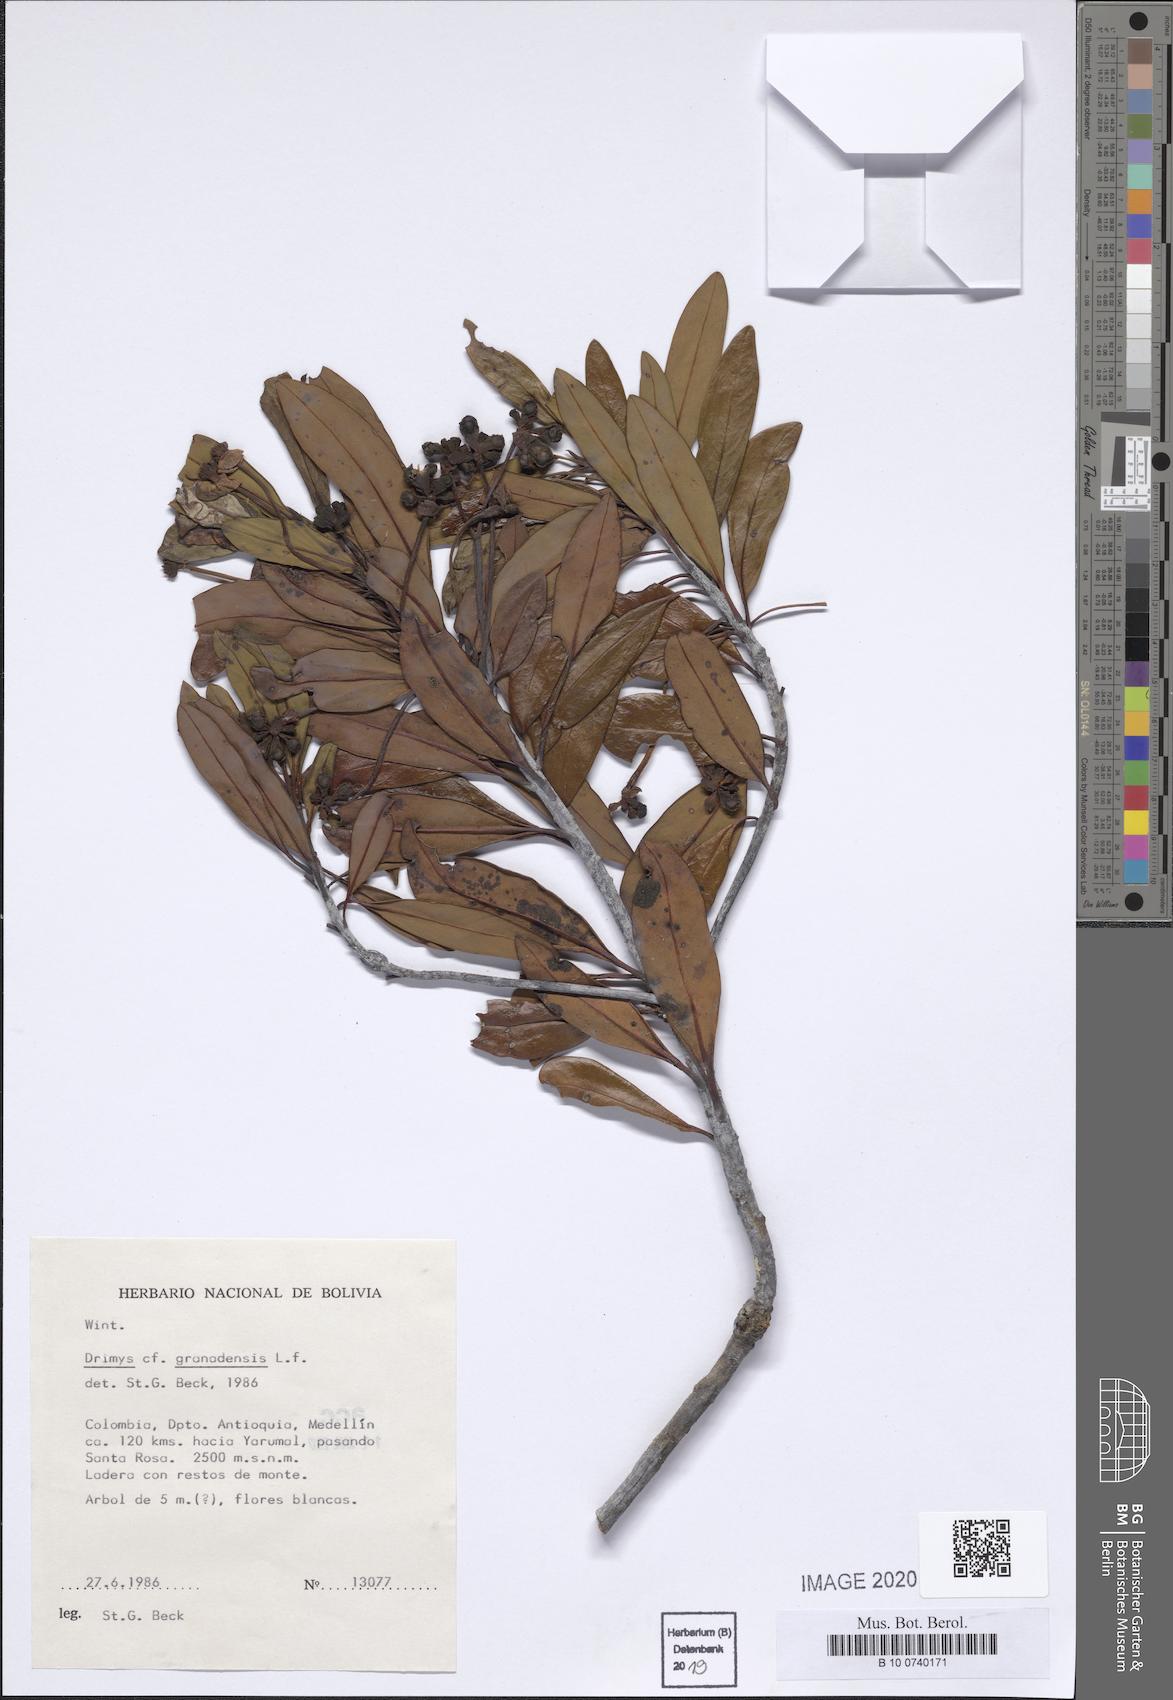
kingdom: Plantae
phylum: Tracheophyta
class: Magnoliopsida
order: Canellales
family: Winteraceae
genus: Drimys
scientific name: Drimys granadensis
